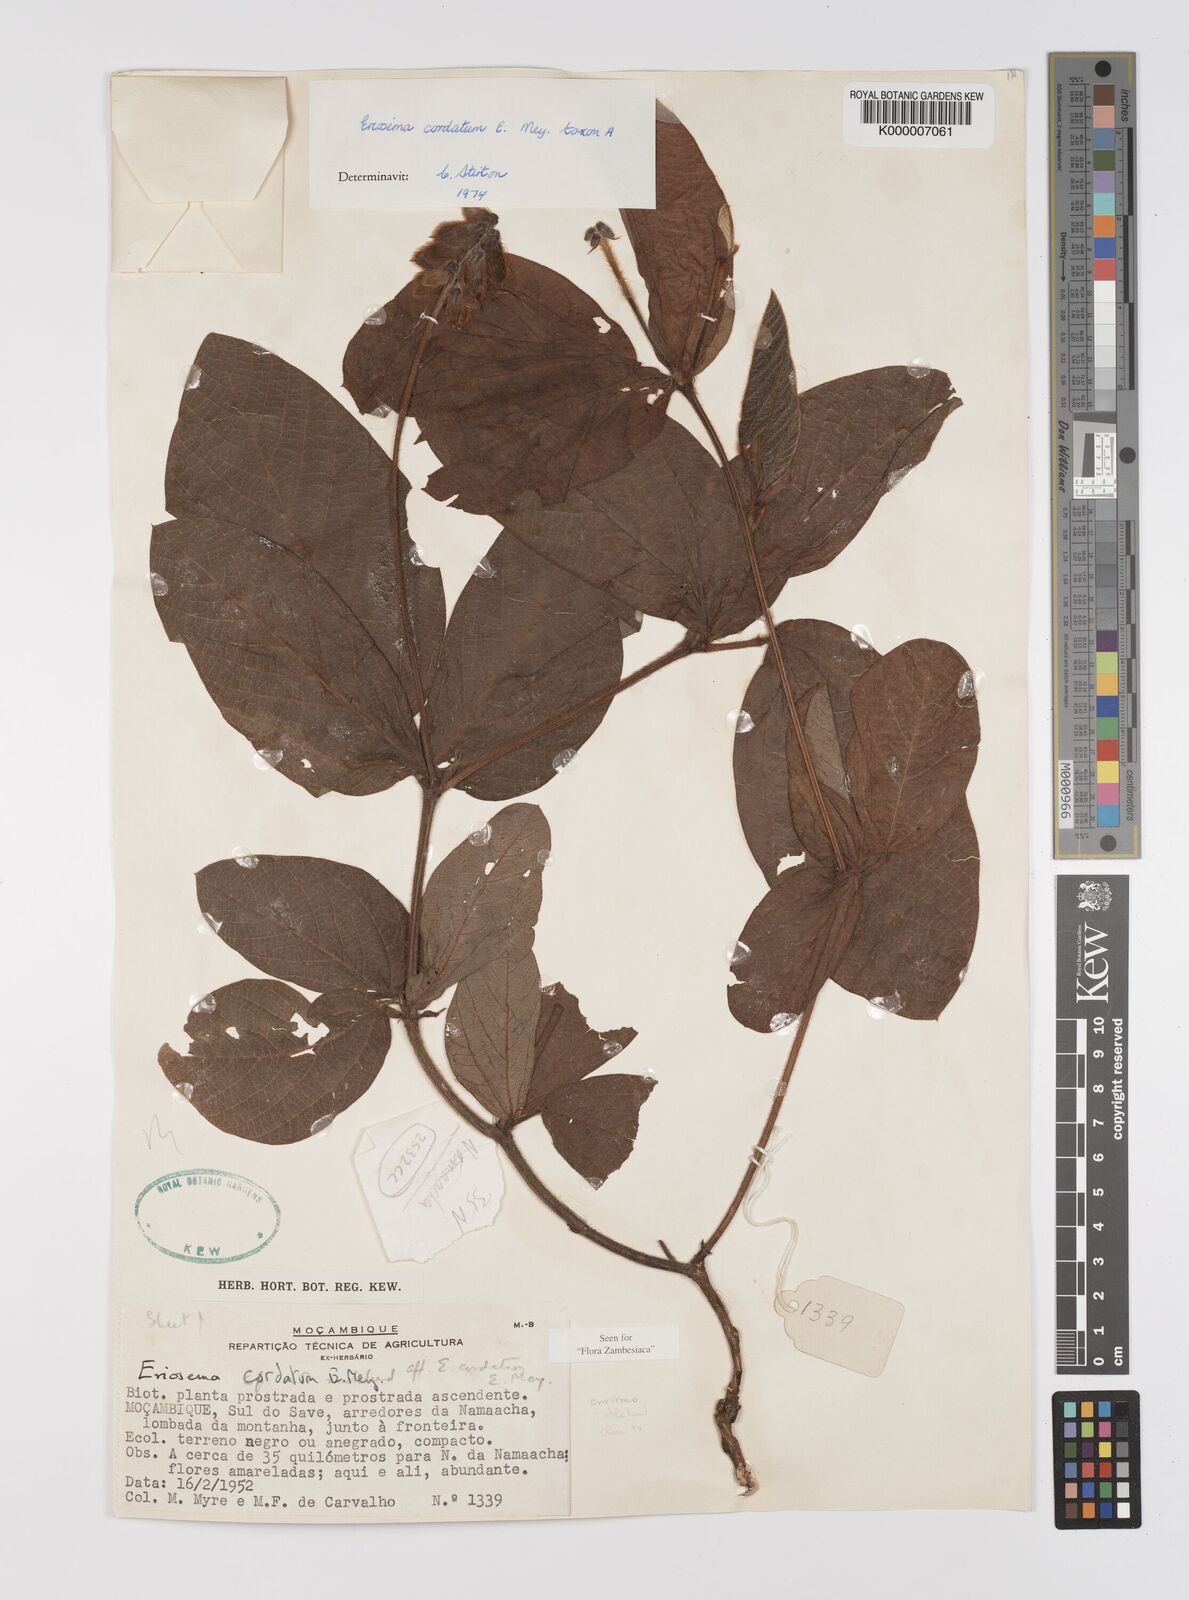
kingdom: Plantae
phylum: Tracheophyta
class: Magnoliopsida
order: Fabales
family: Fabaceae
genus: Eriosema
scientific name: Eriosema cordatum
